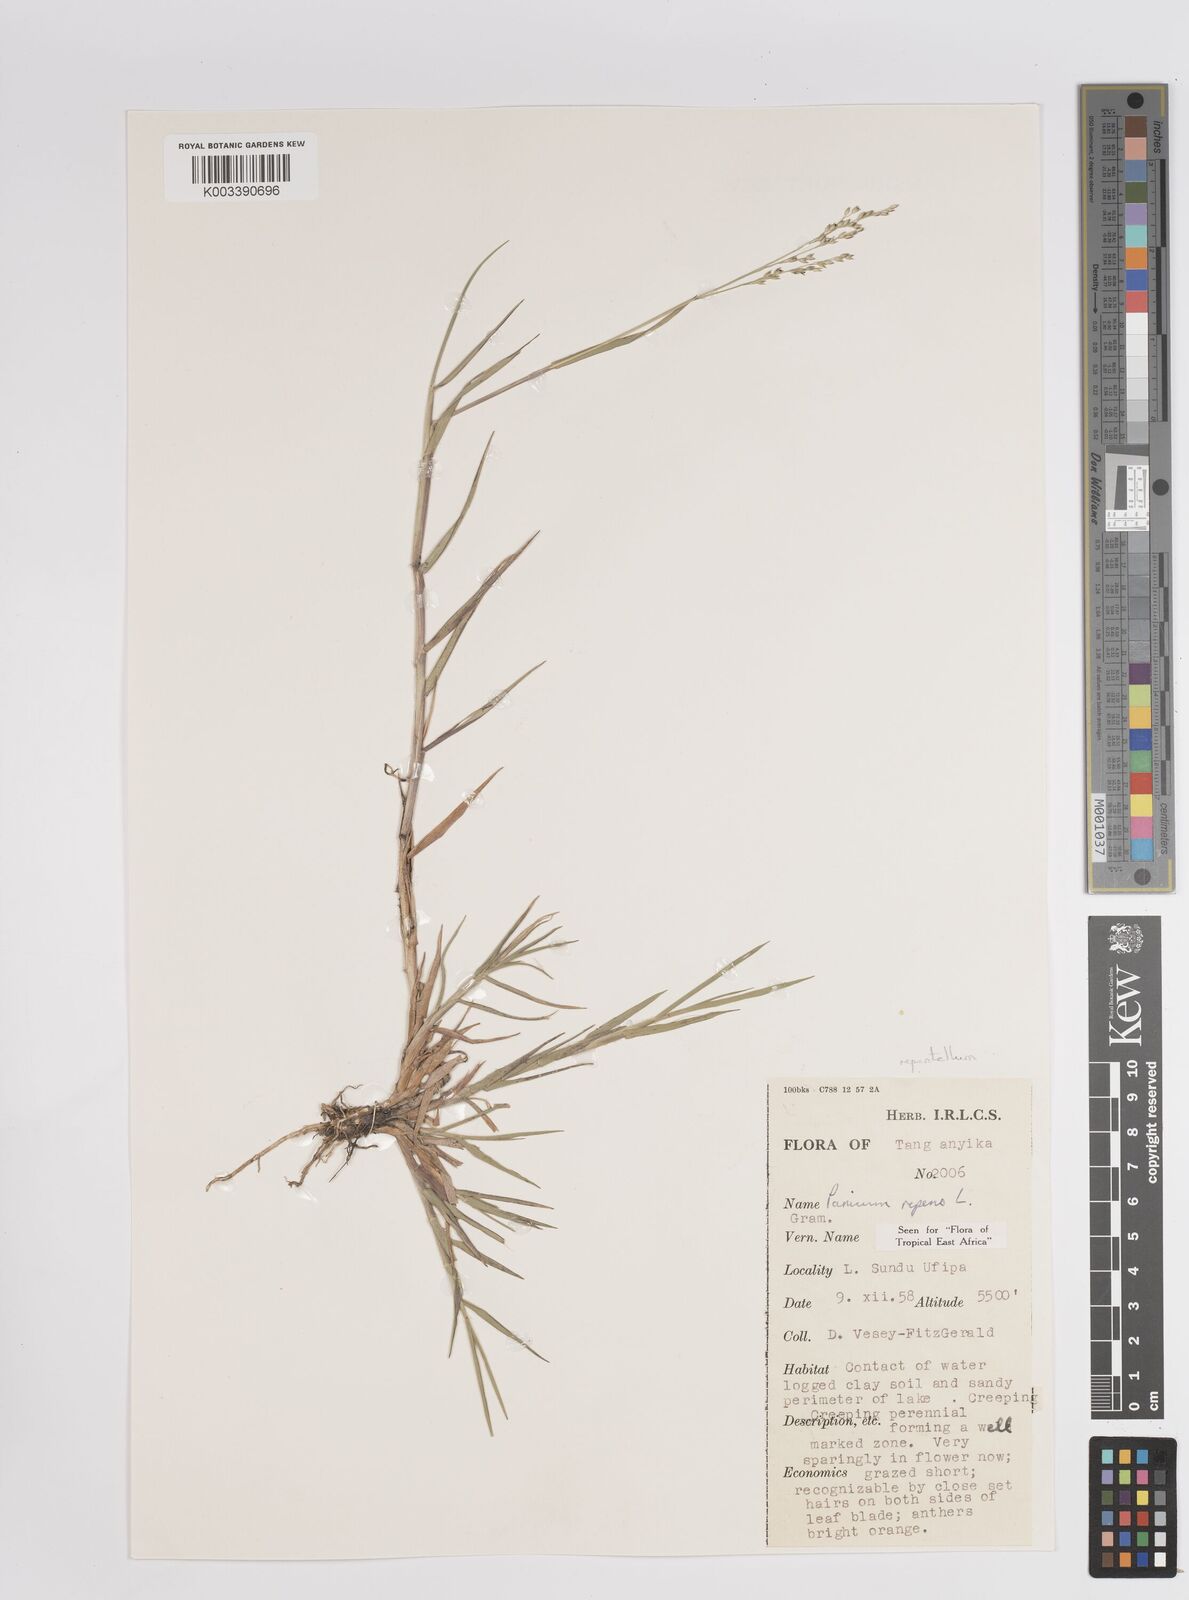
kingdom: Plantae
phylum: Tracheophyta
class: Liliopsida
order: Poales
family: Poaceae
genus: Panicum
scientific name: Panicum hygrocharis
